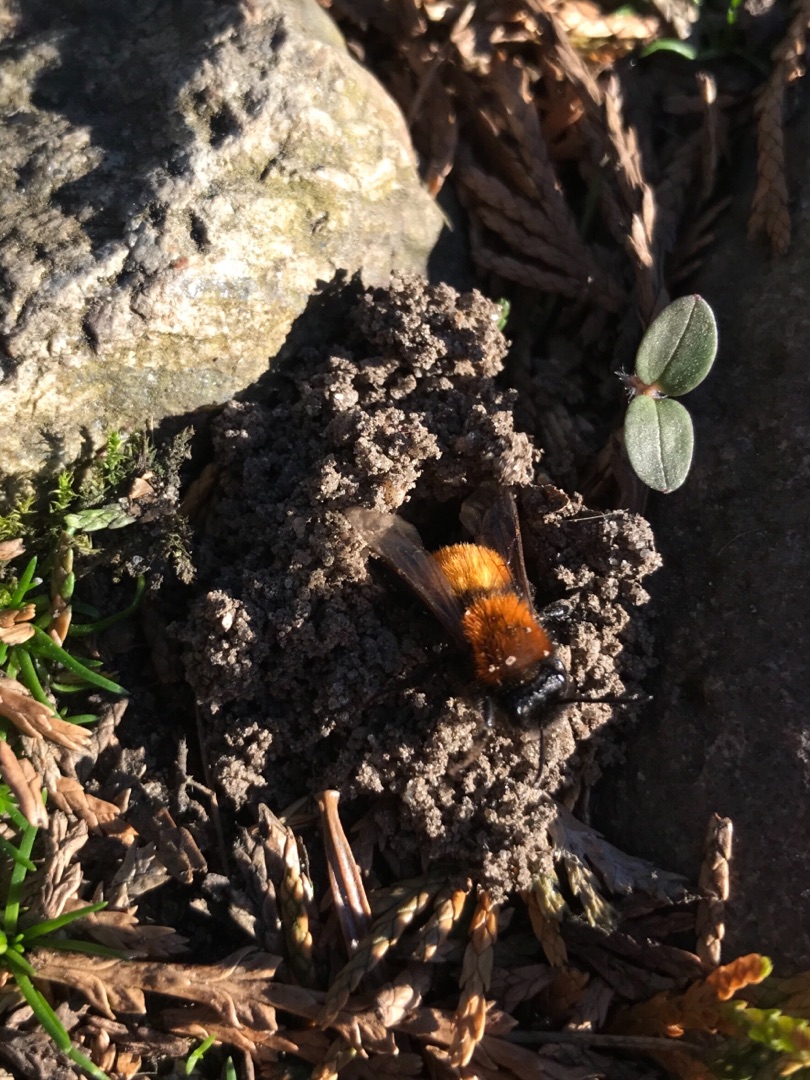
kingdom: Animalia
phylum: Arthropoda
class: Insecta
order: Hymenoptera
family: Andrenidae
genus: Andrena
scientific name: Andrena fulva
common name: Rødpelset jordbi
